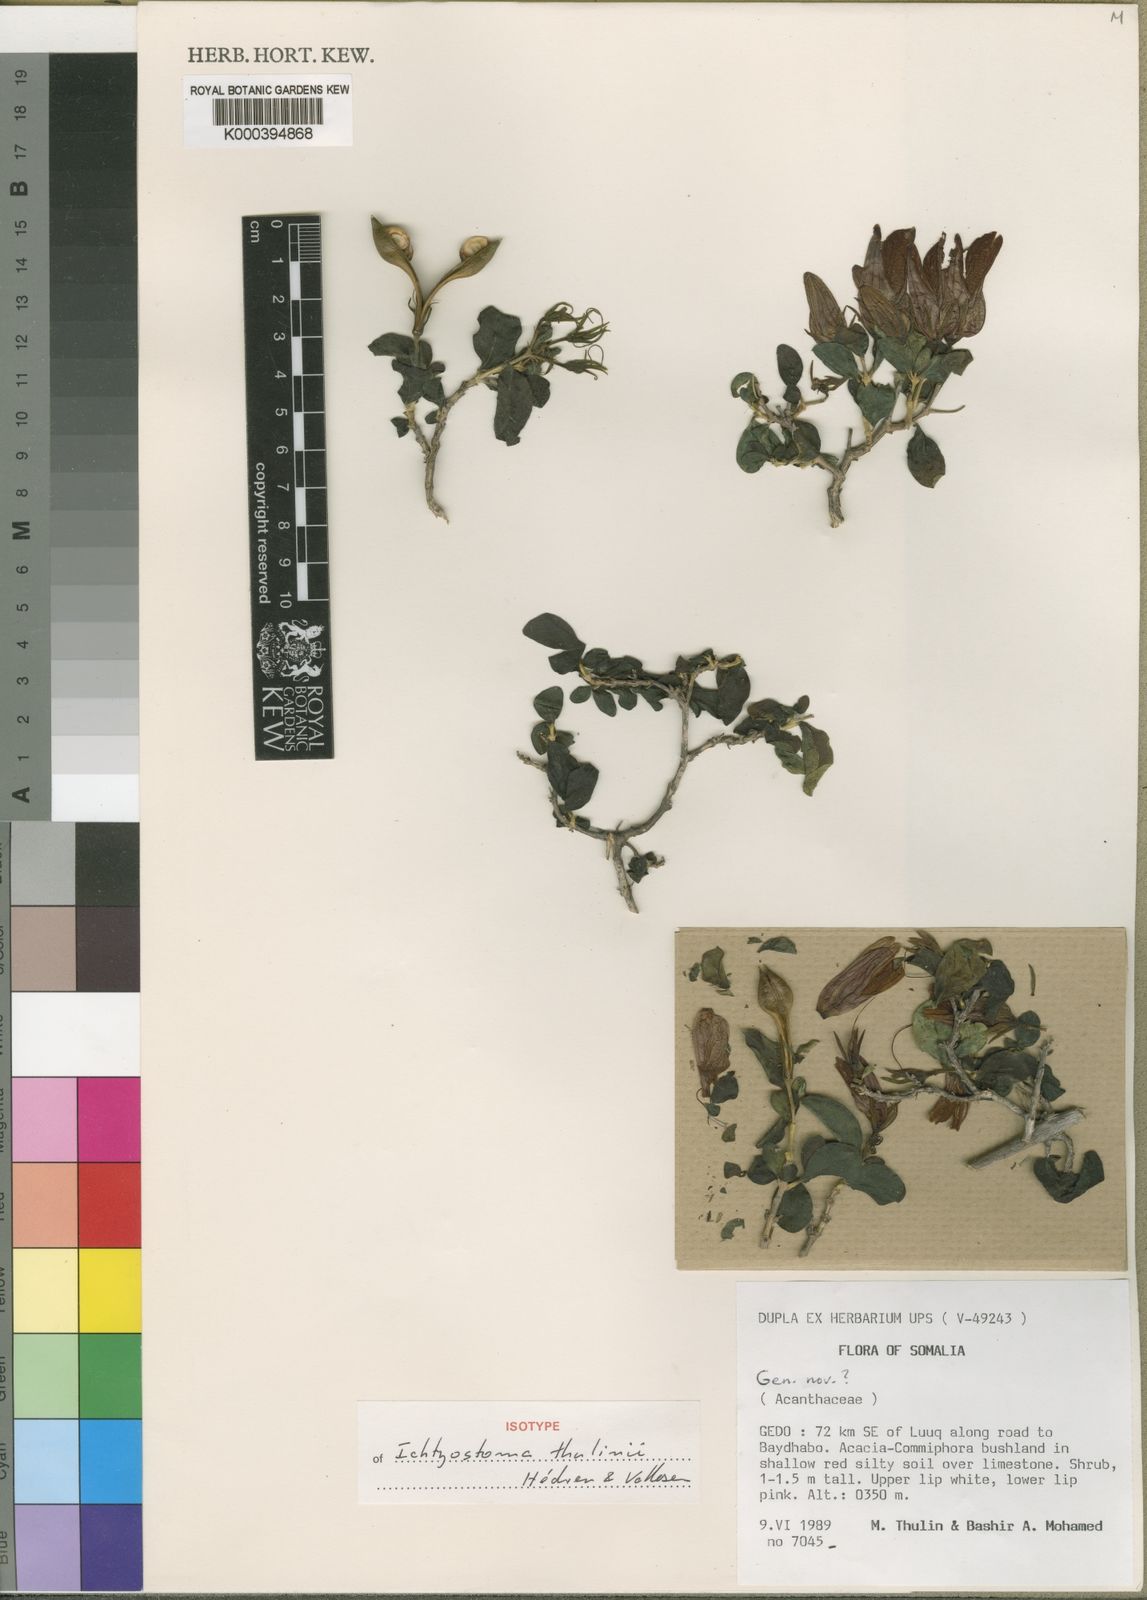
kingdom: Plantae
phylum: Tracheophyta
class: Magnoliopsida
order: Lamiales
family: Acanthaceae
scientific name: Acanthaceae
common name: Acanthaceae
